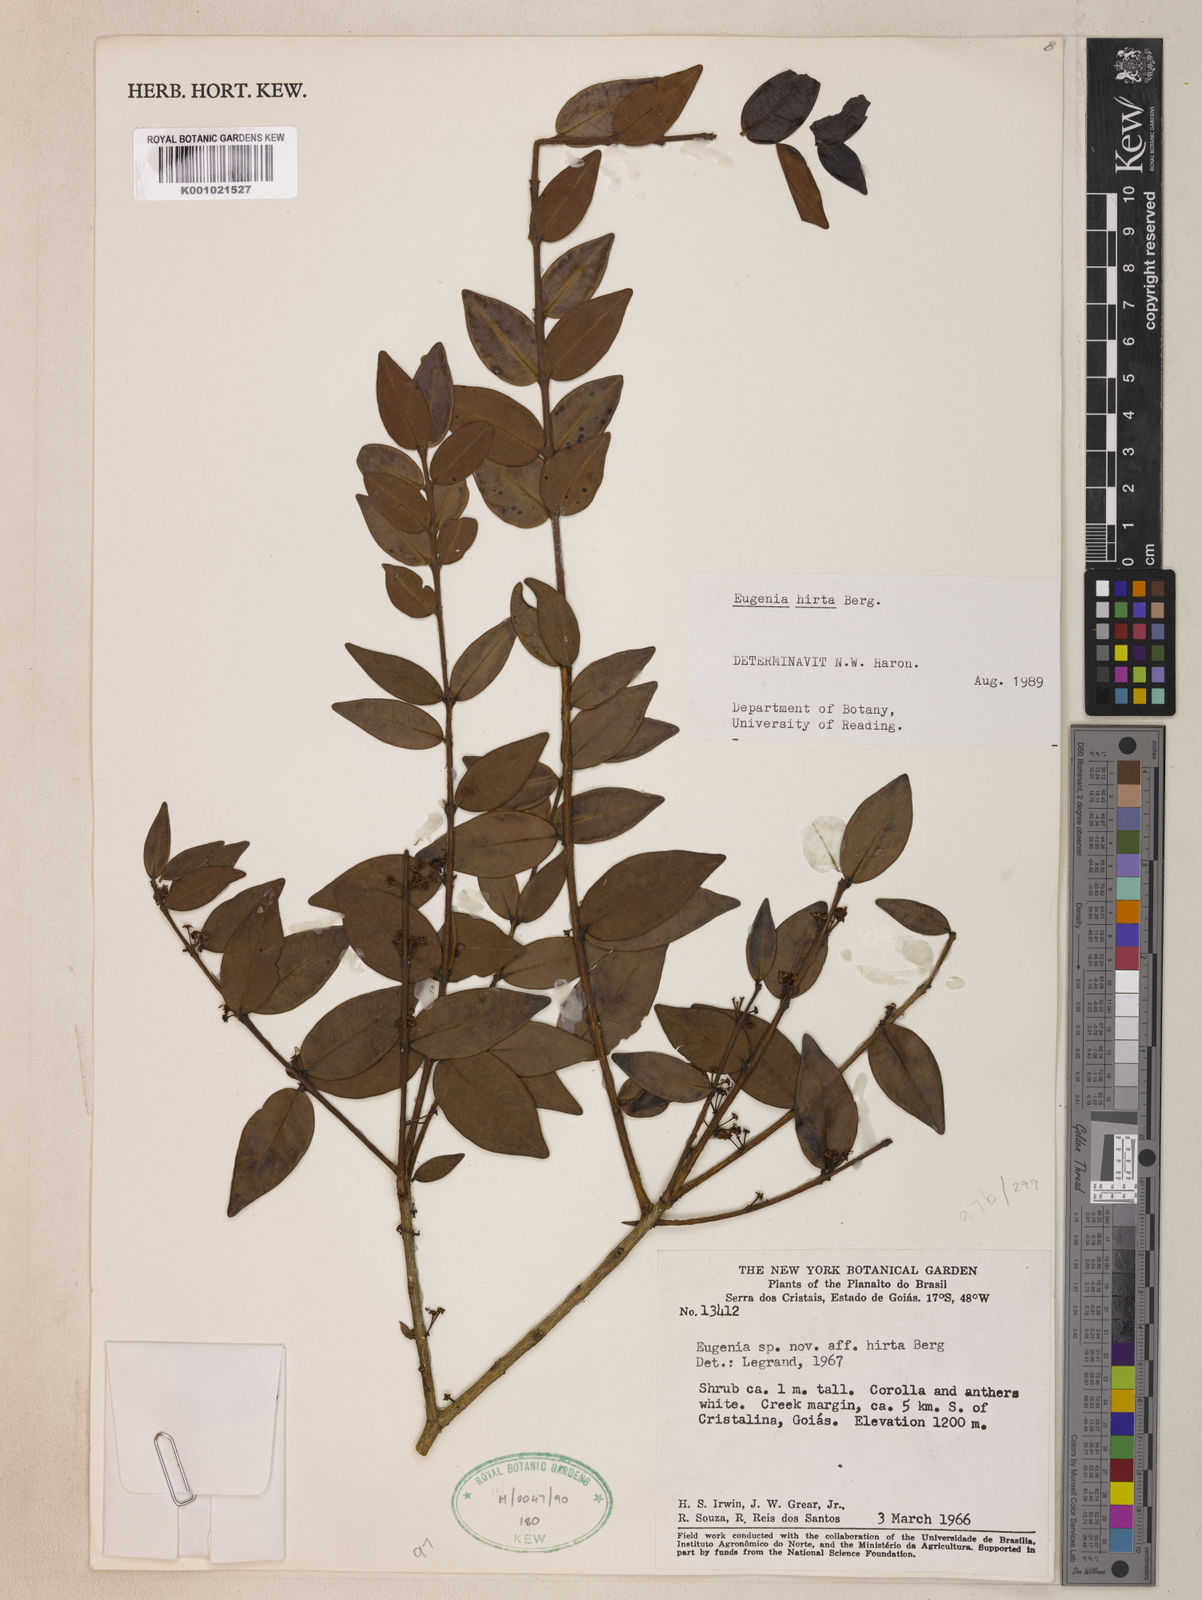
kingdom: Plantae
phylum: Tracheophyta
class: Magnoliopsida
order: Myrtales
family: Myrtaceae
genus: Eugenia
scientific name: Eugenia hirta
